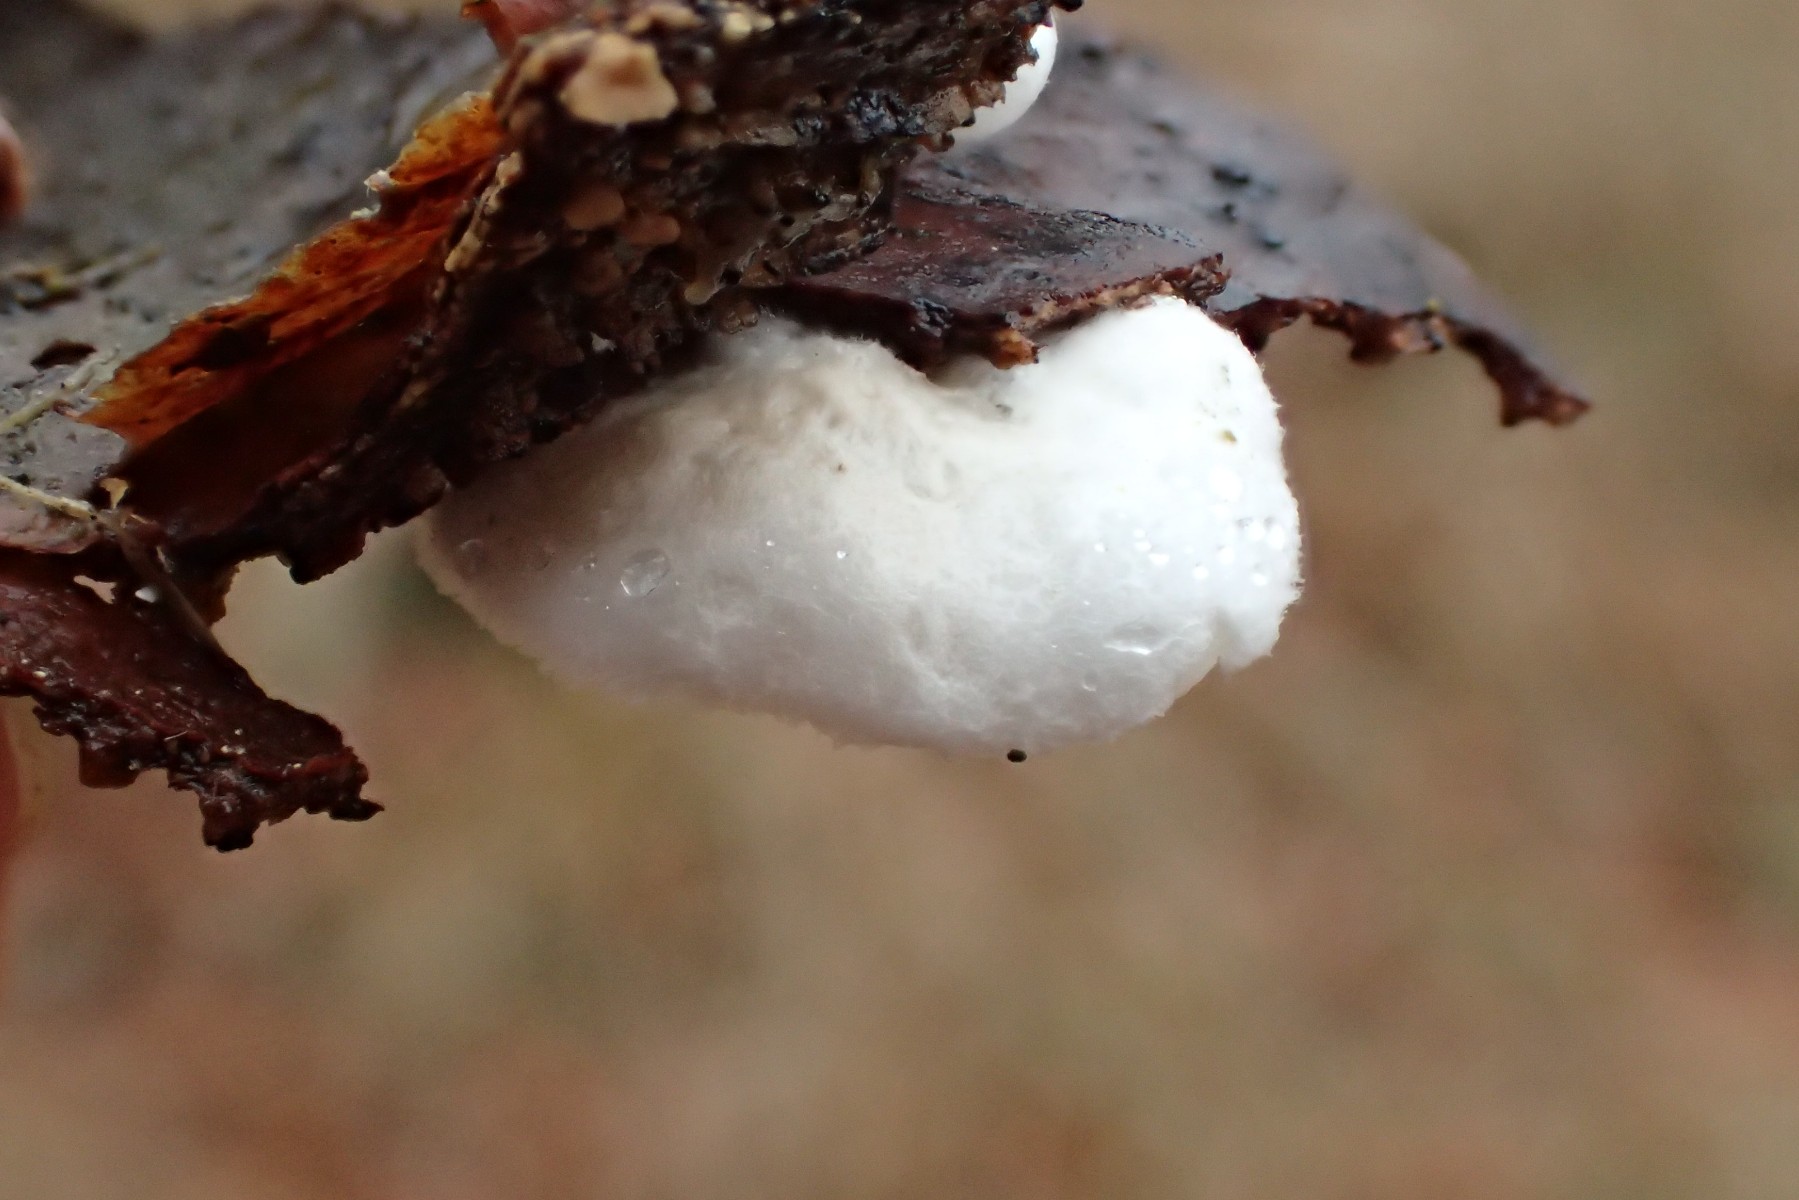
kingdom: Fungi
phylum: Basidiomycota
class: Agaricomycetes
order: Agaricales
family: Crepidotaceae
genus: Crepidotus
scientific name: Crepidotus variabilis
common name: forskelligformet muslingesvamp
